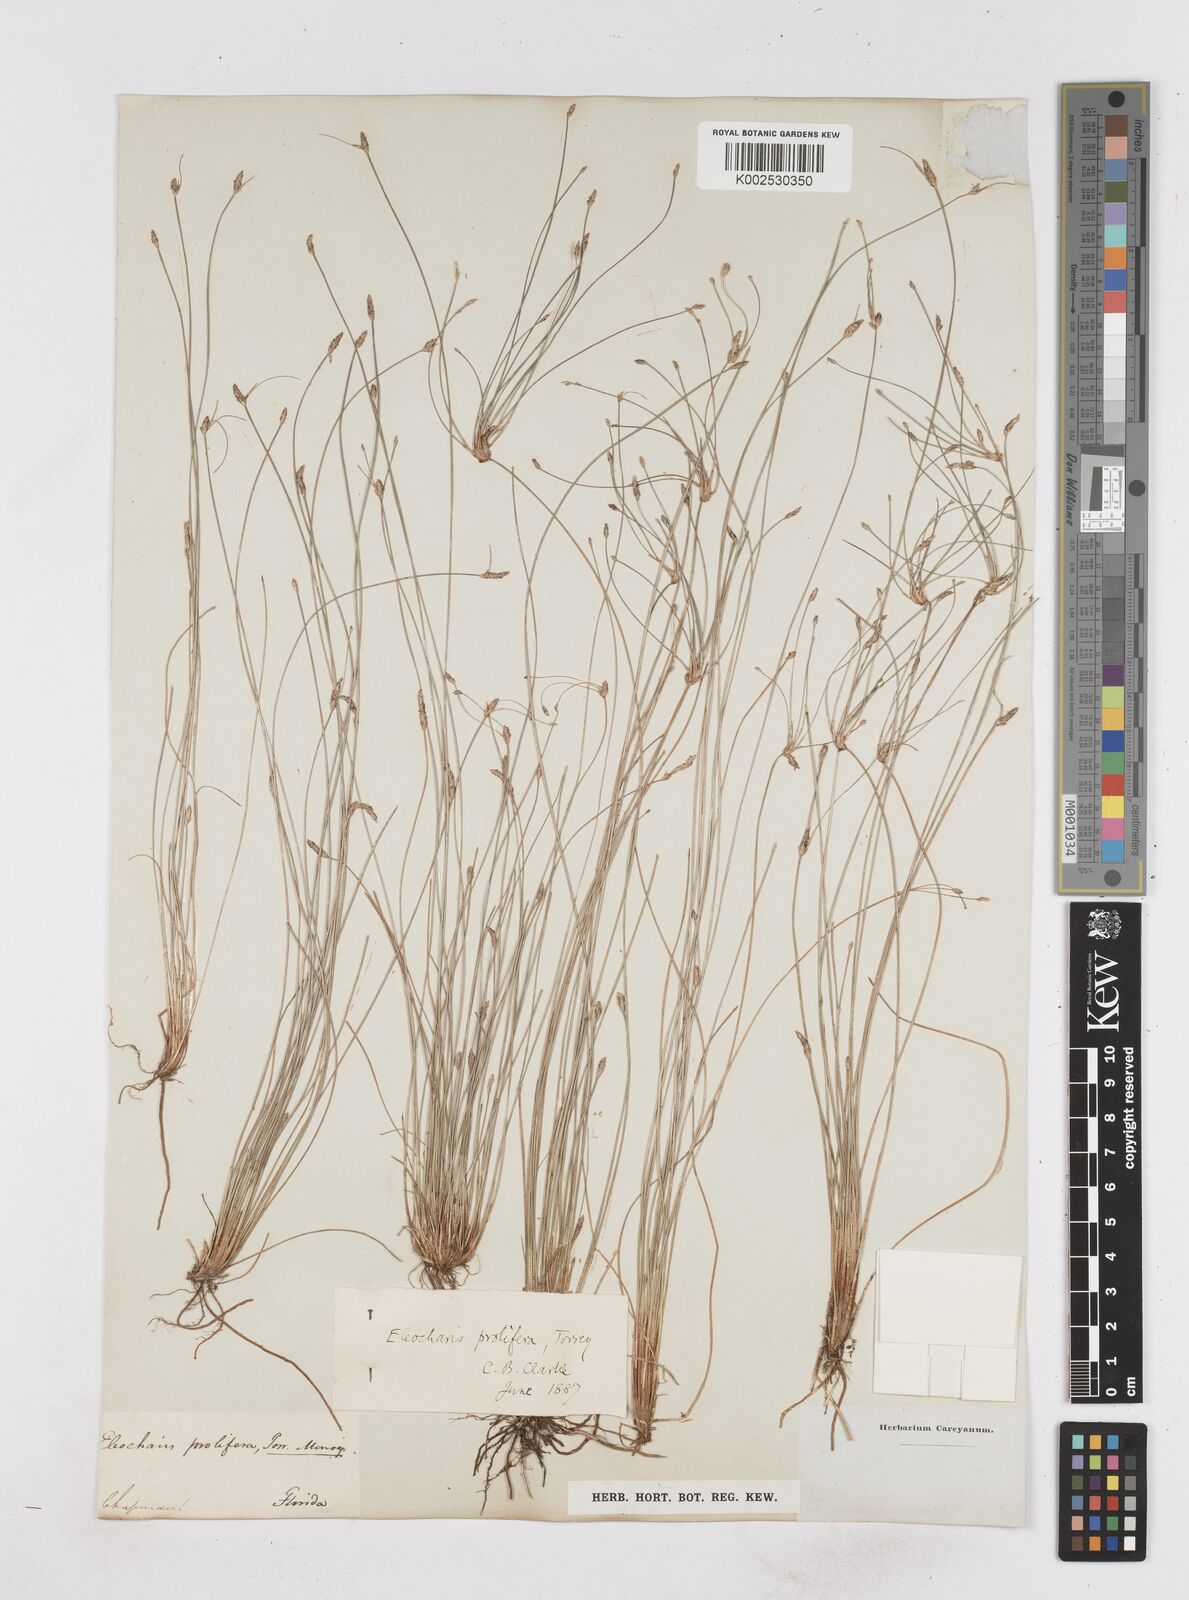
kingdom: Plantae
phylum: Tracheophyta
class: Liliopsida
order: Poales
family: Cyperaceae
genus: Eleocharis
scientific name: Eleocharis
